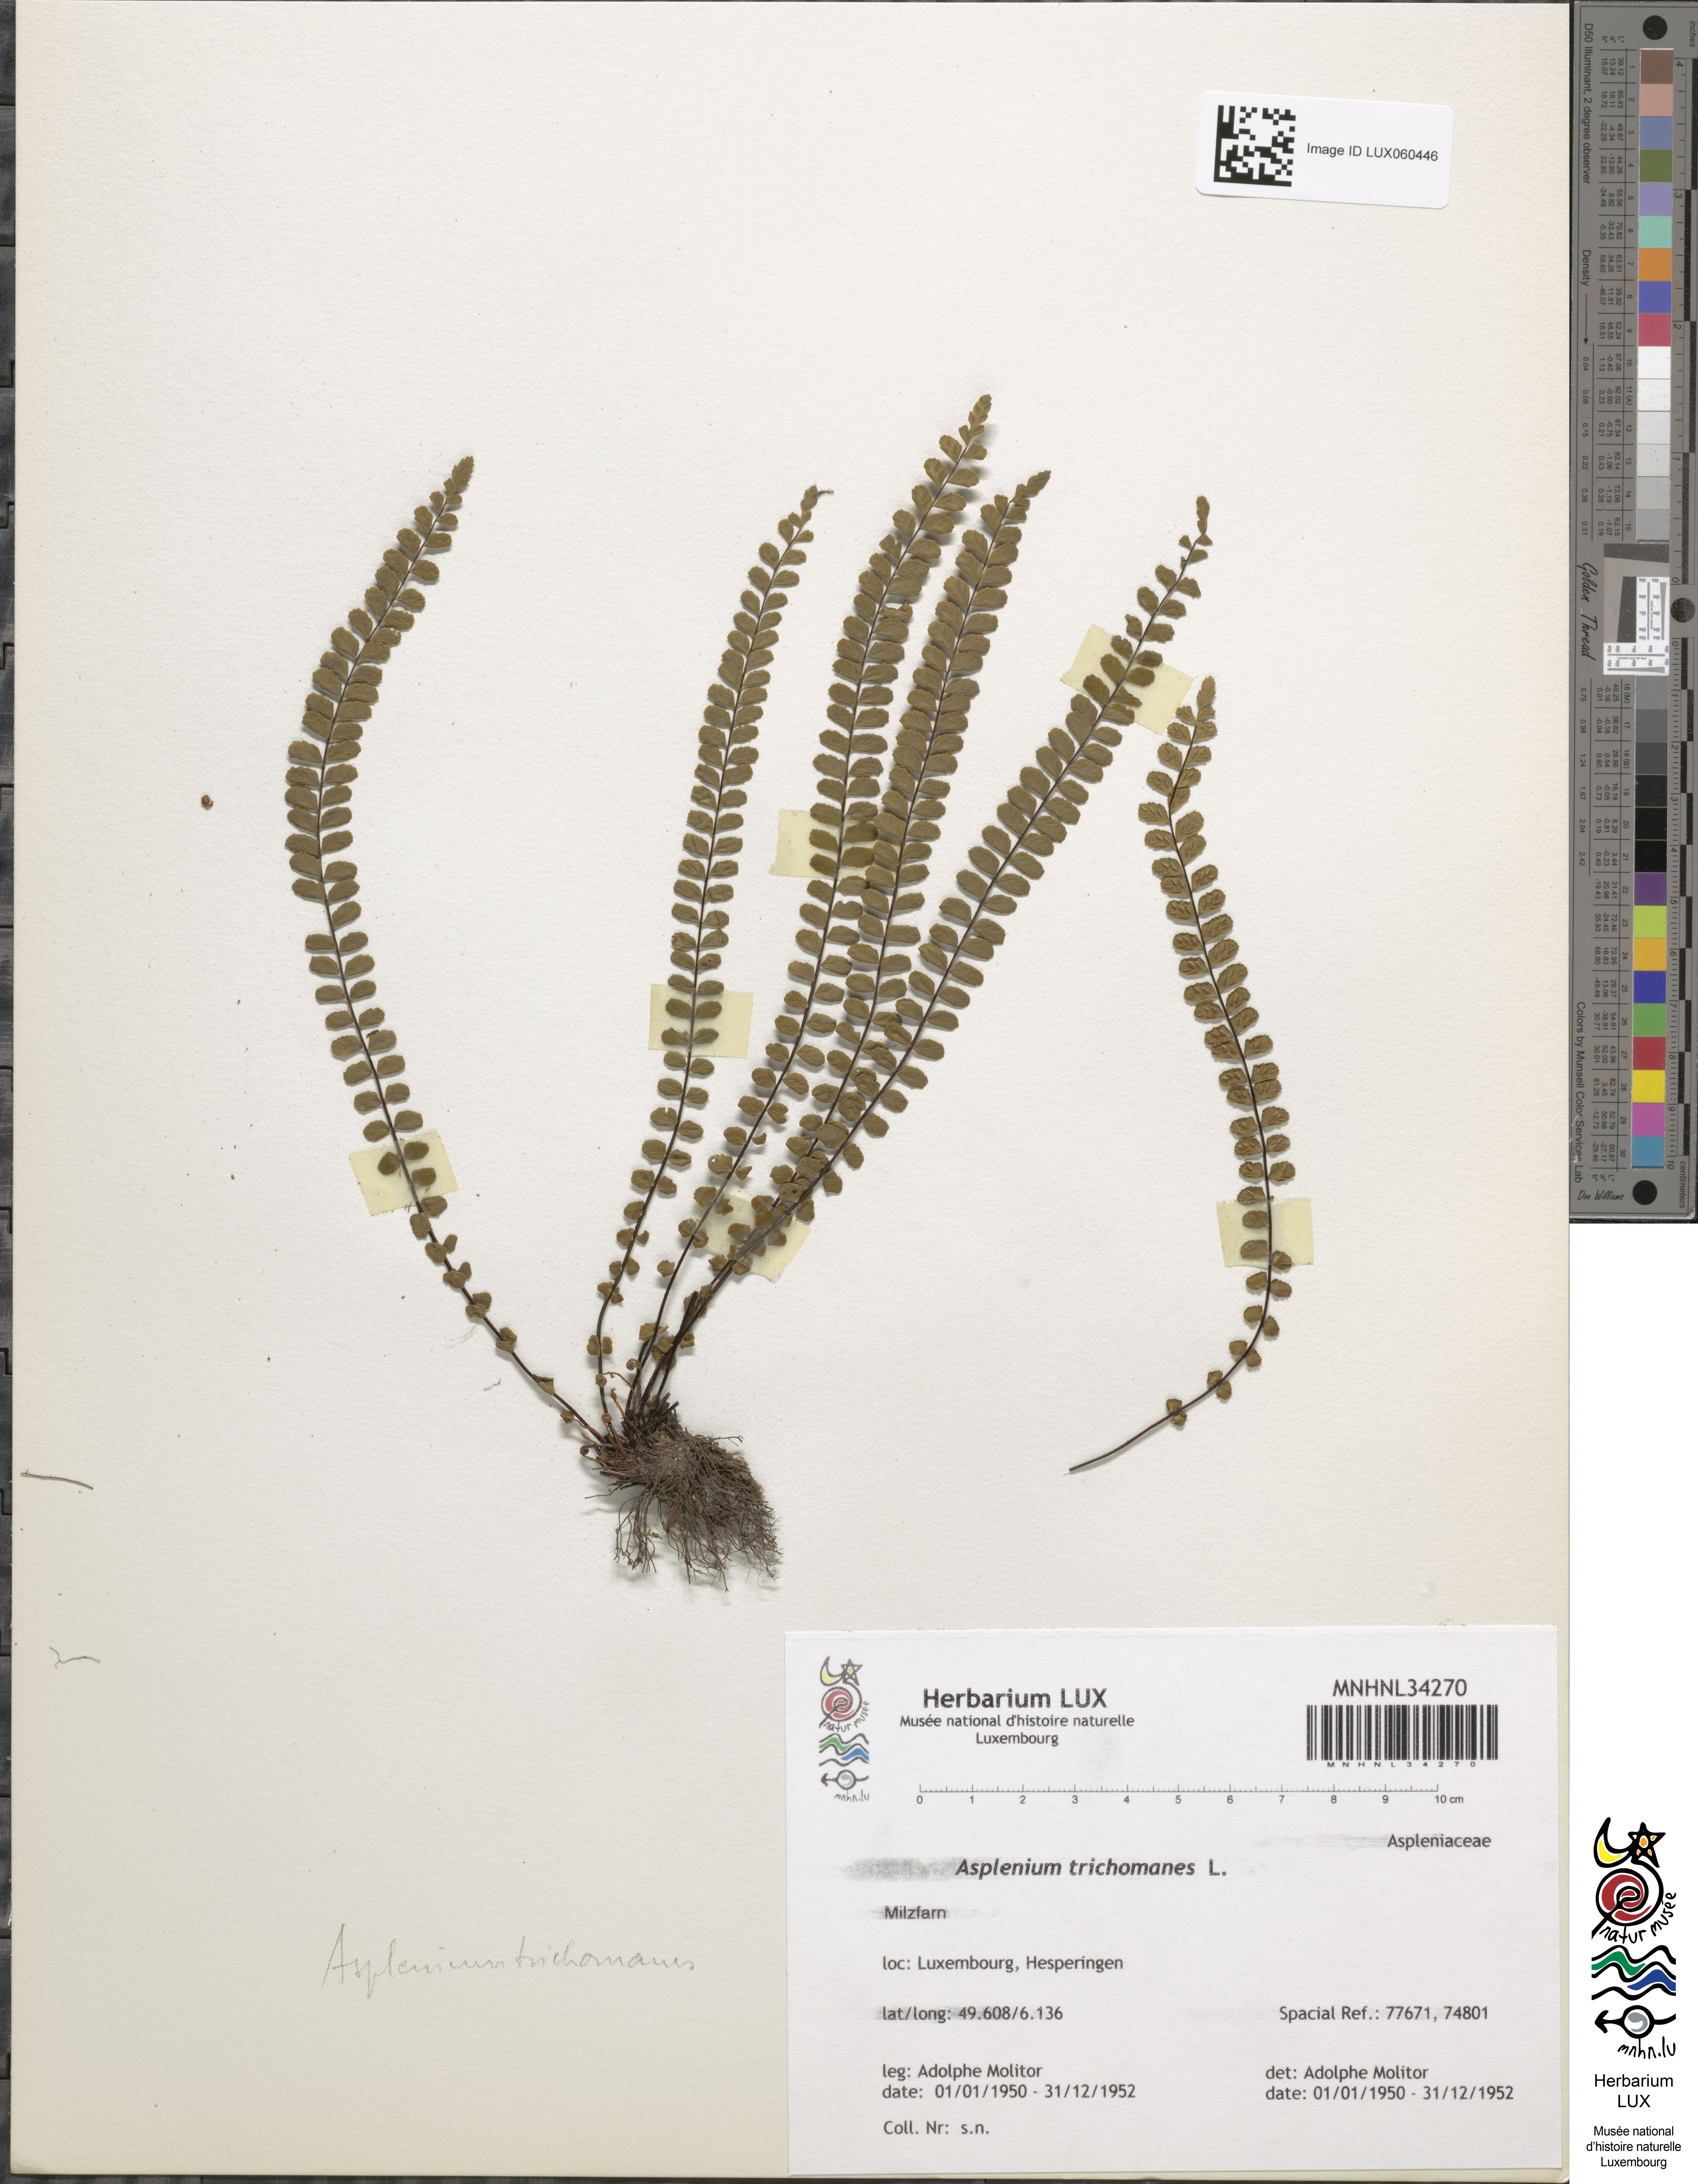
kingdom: Plantae
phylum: Tracheophyta
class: Polypodiopsida
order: Polypodiales
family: Aspleniaceae
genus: Asplenium
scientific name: Asplenium trichomanes
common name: Maidenhair spleenwort
